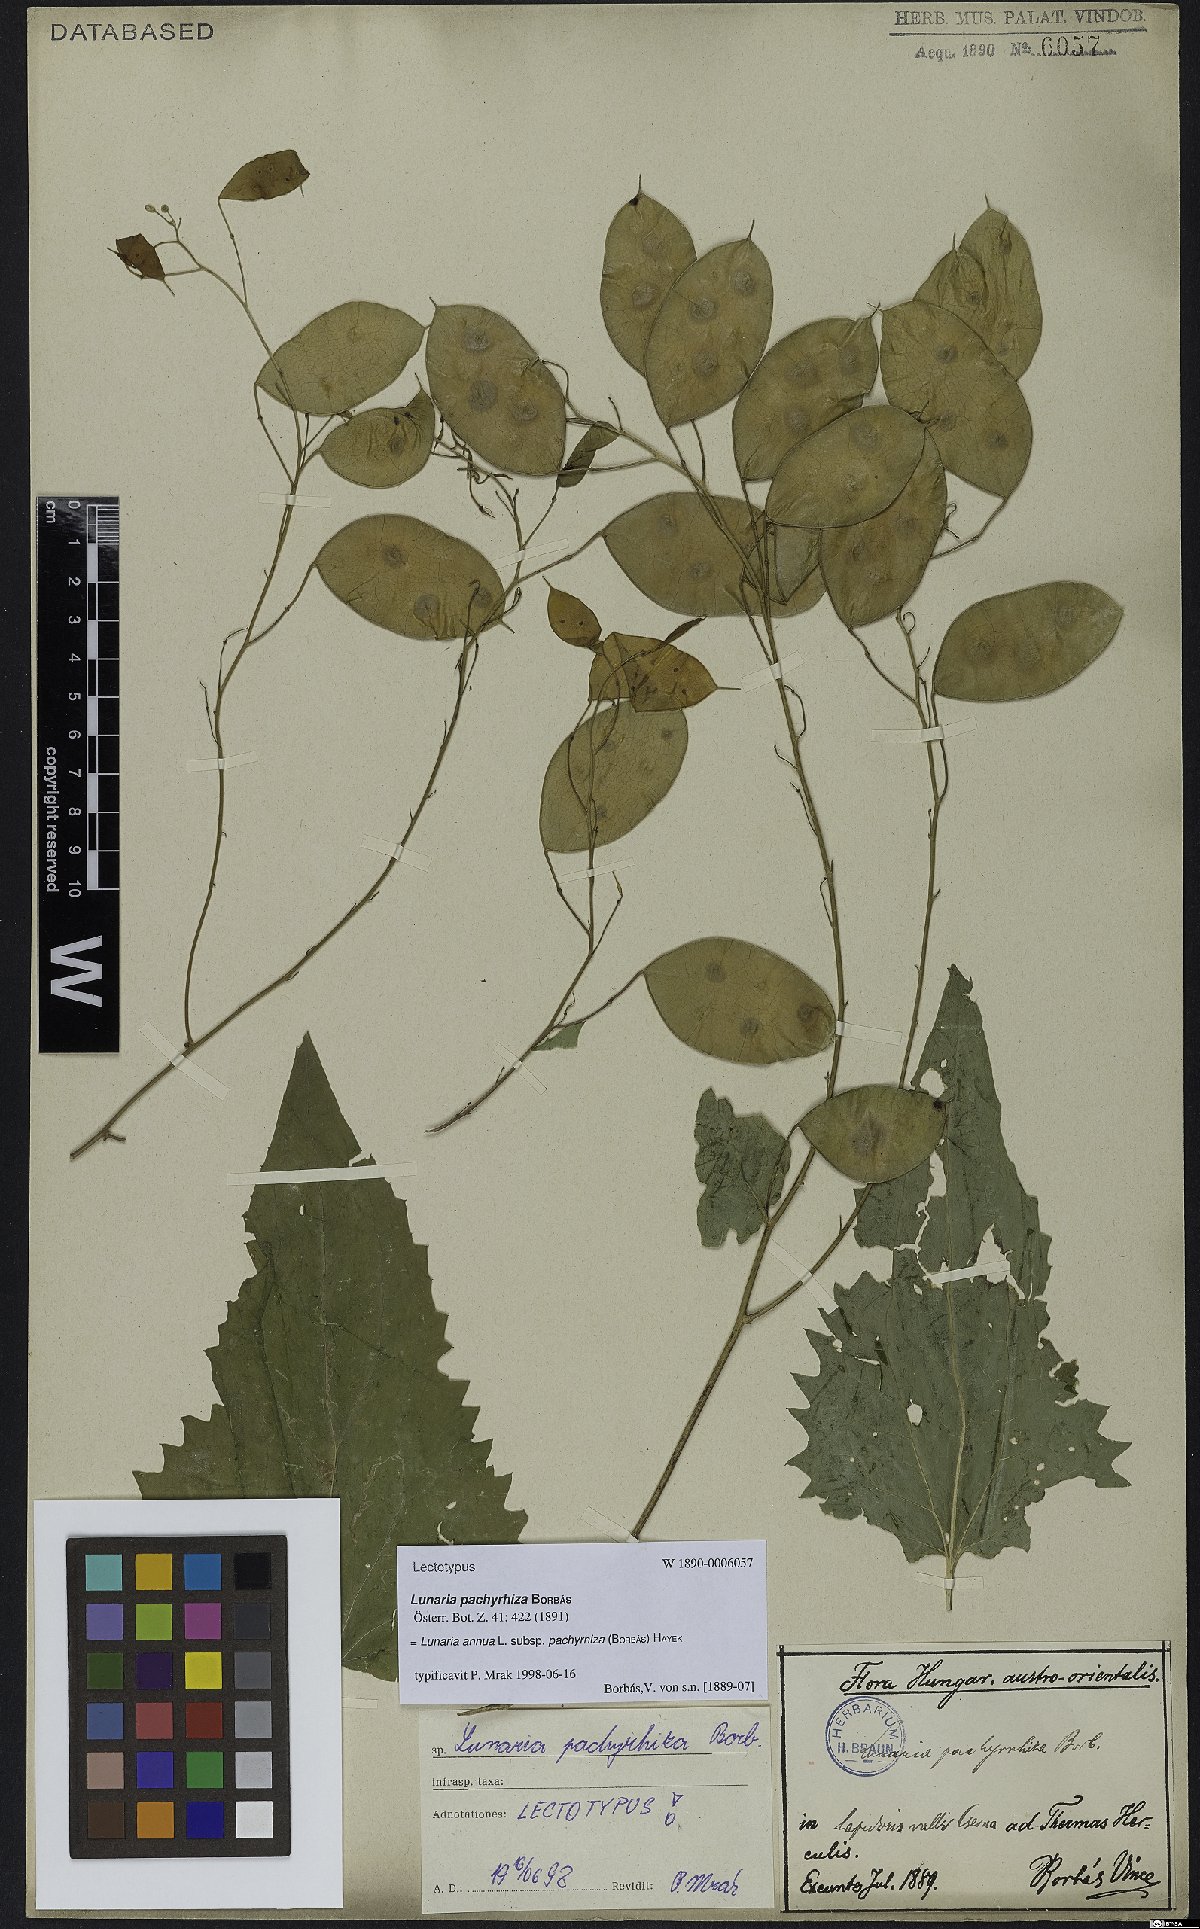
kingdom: Plantae
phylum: Tracheophyta
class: Magnoliopsida
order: Brassicales
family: Brassicaceae
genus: Lunaria
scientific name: Lunaria annua
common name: Honesty
